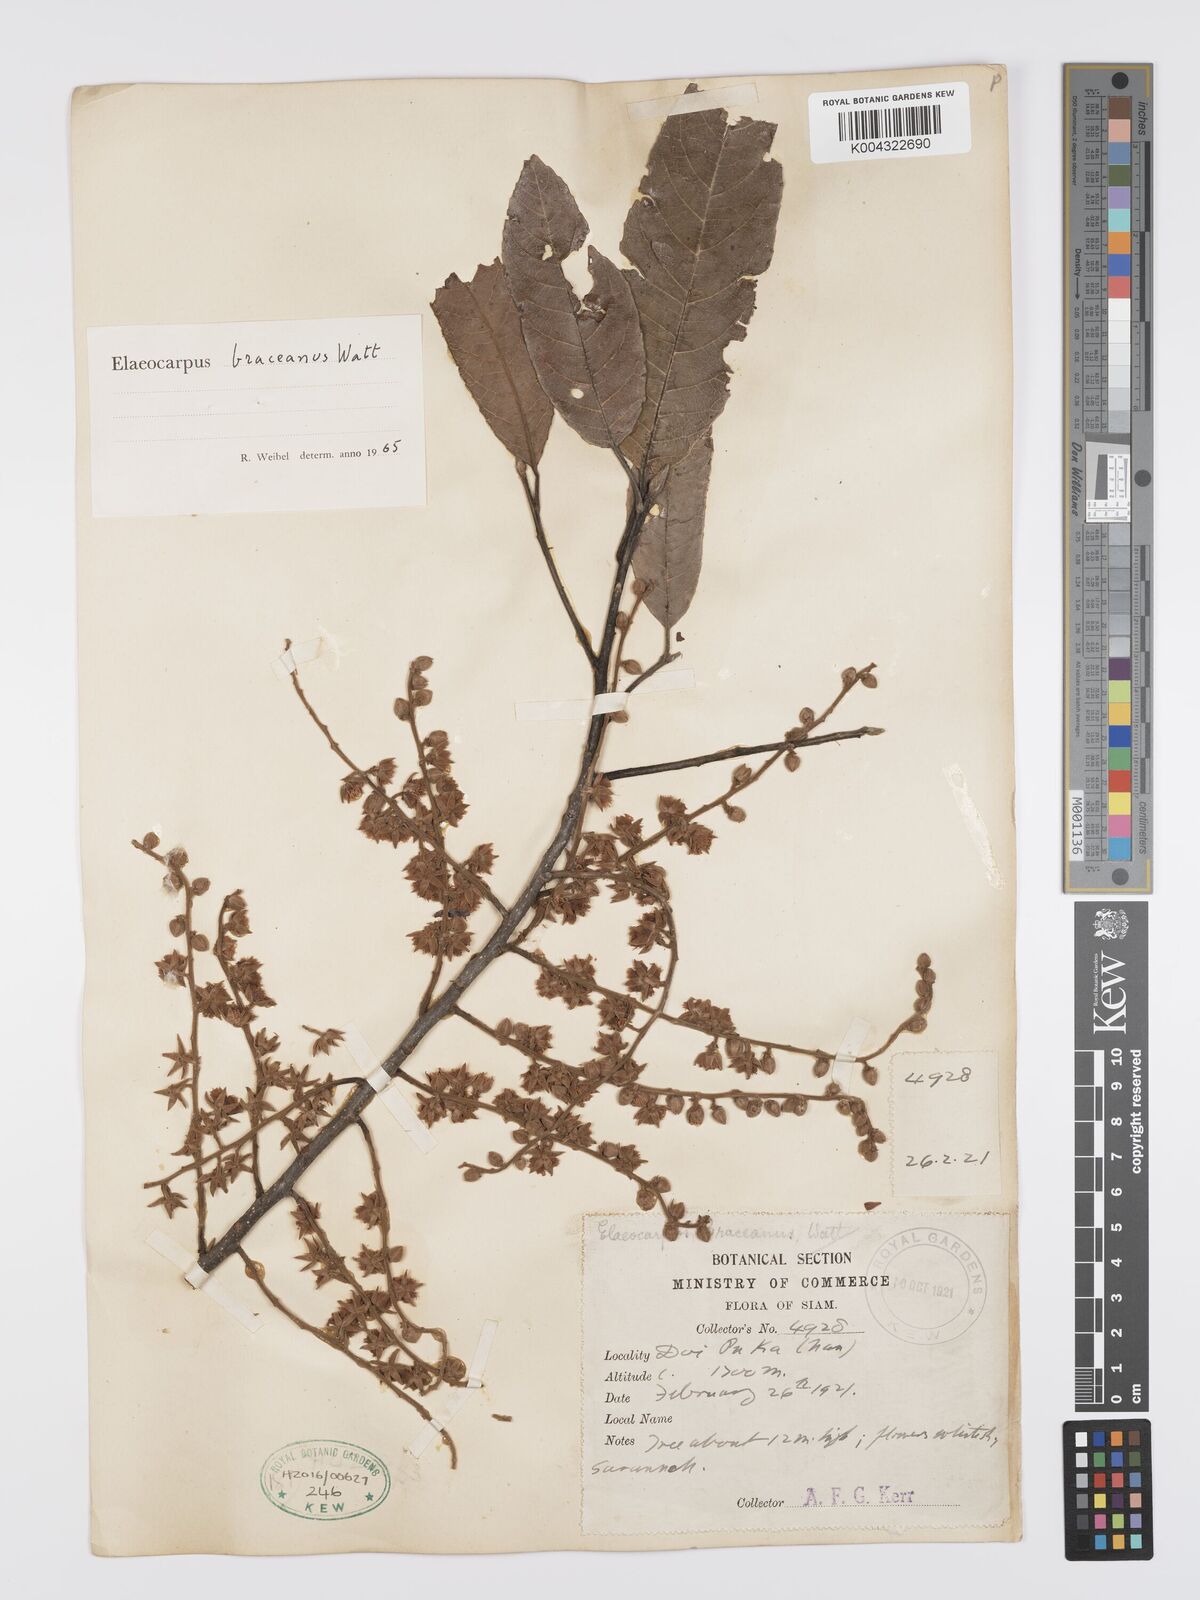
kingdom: Plantae
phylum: Tracheophyta
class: Magnoliopsida
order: Oxalidales
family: Elaeocarpaceae
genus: Elaeocarpus
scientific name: Elaeocarpus braceanus
